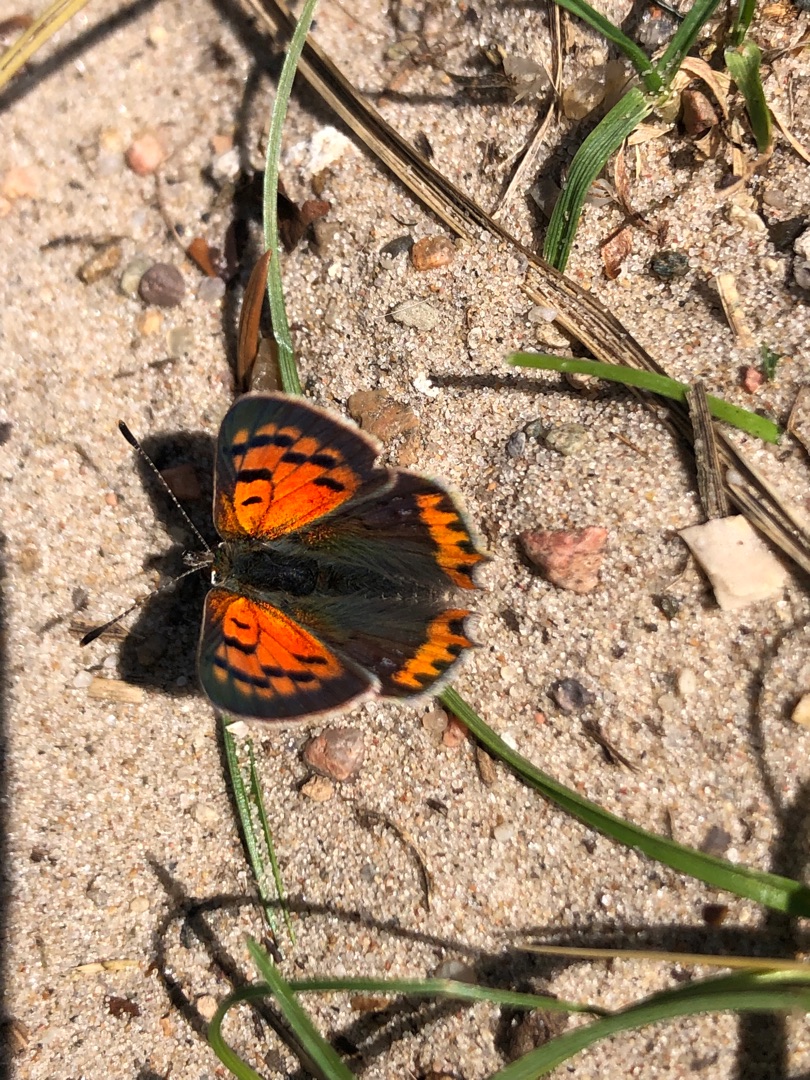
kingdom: Animalia
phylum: Arthropoda
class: Insecta
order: Lepidoptera
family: Lycaenidae
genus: Lycaena
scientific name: Lycaena phlaeas
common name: Lille ildfugl
